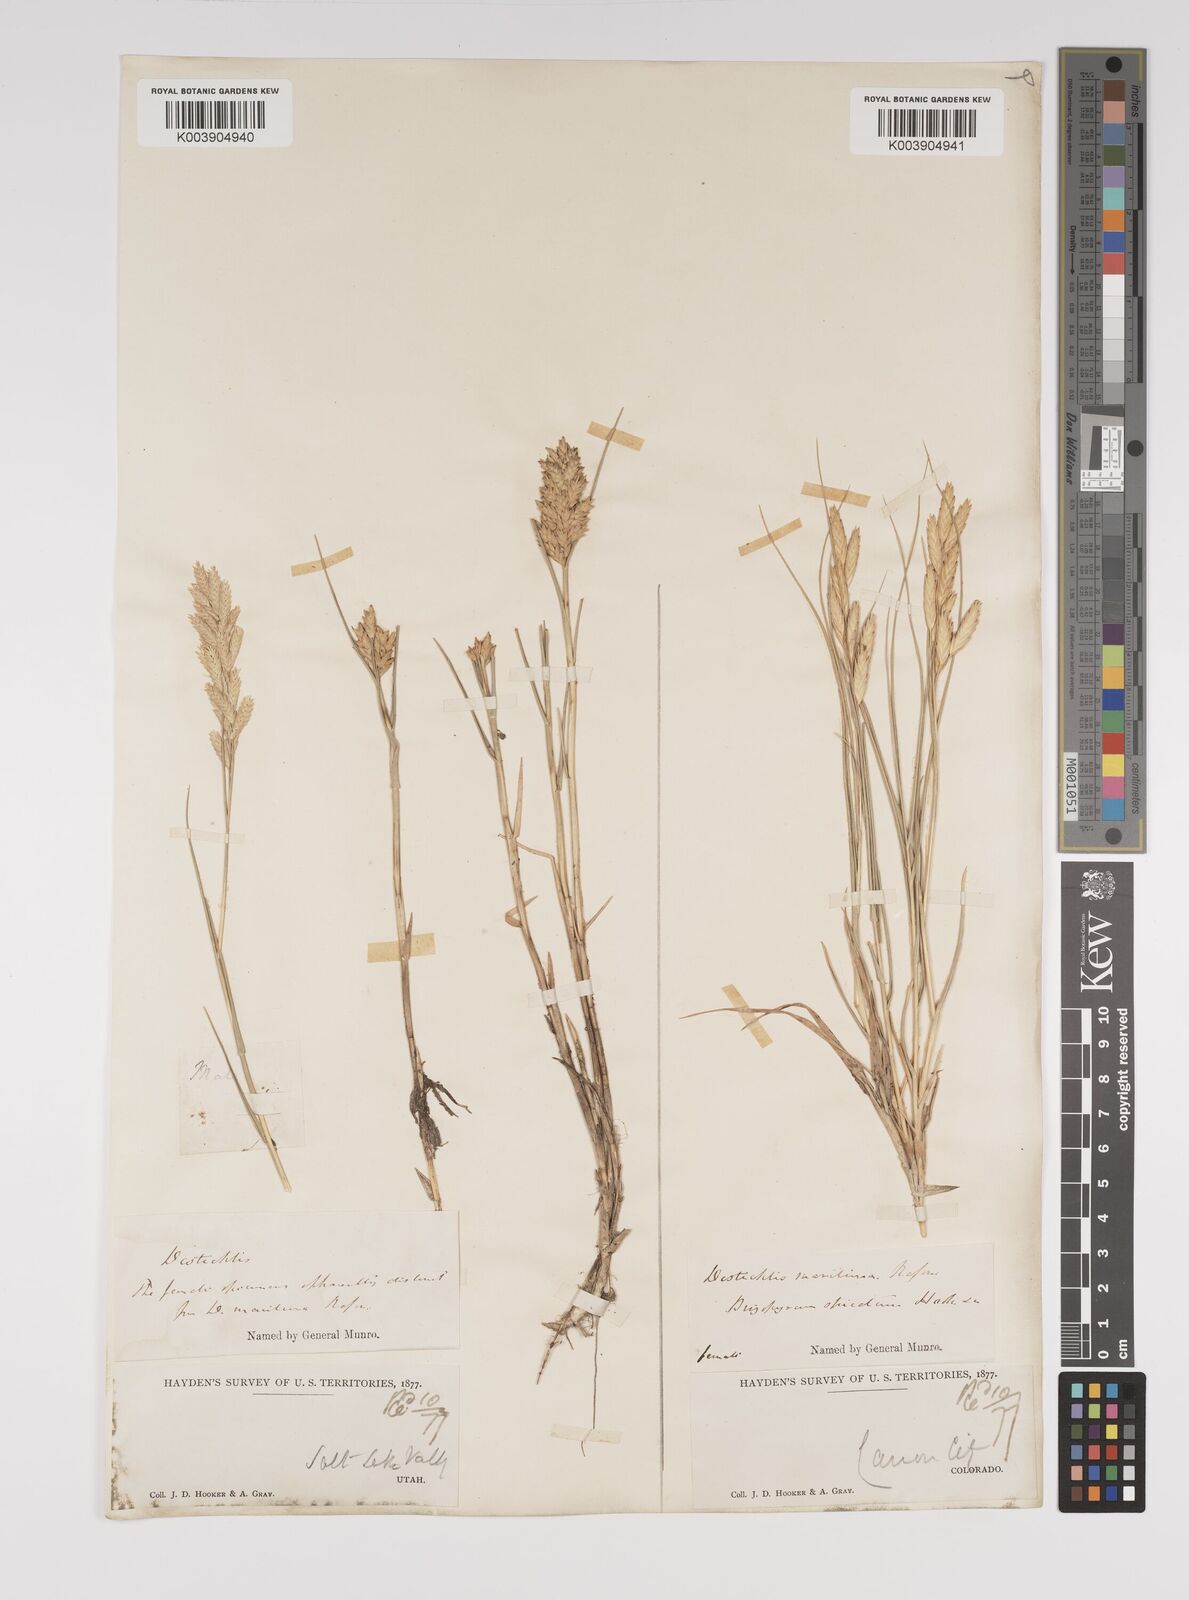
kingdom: Plantae
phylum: Tracheophyta
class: Liliopsida
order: Poales
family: Poaceae
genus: Distichlis
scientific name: Distichlis spicata
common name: Saltgrass
